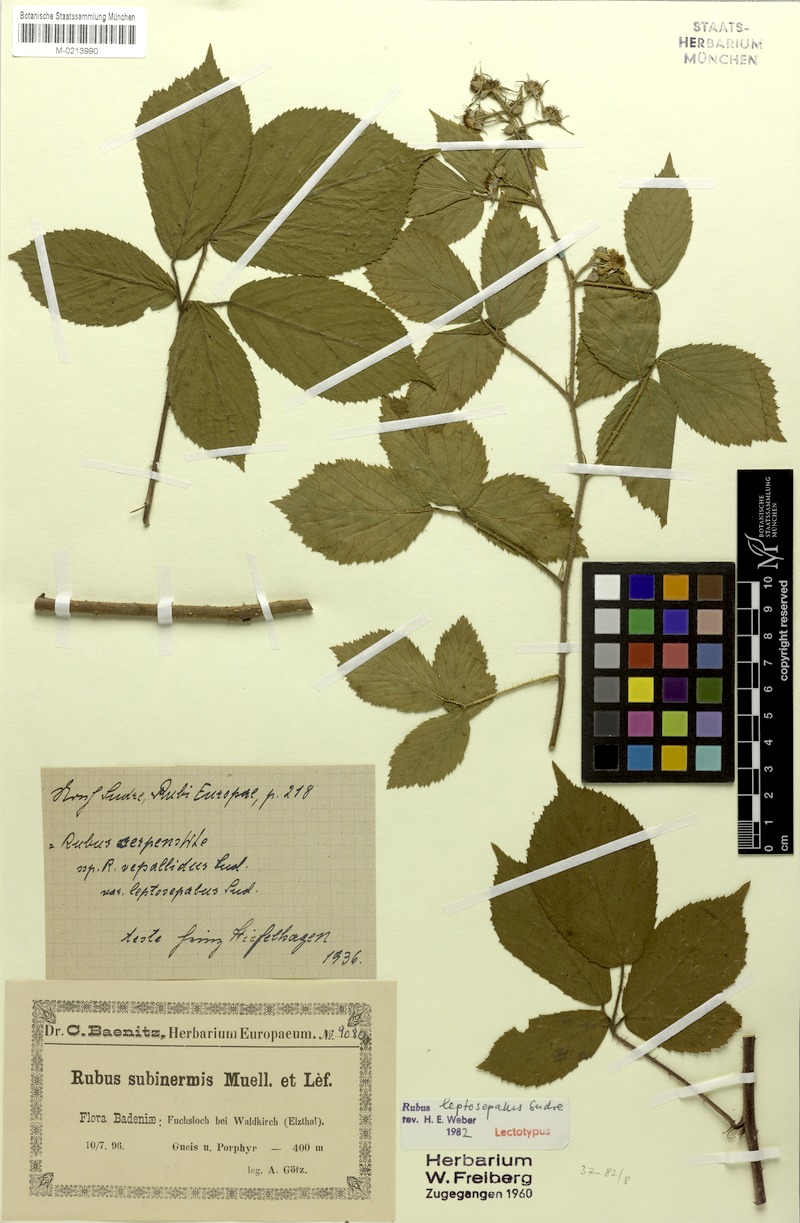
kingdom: Plantae
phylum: Tracheophyta
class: Magnoliopsida
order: Rosales
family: Rosaceae
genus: Rubus
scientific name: Rubus leptosepalus
